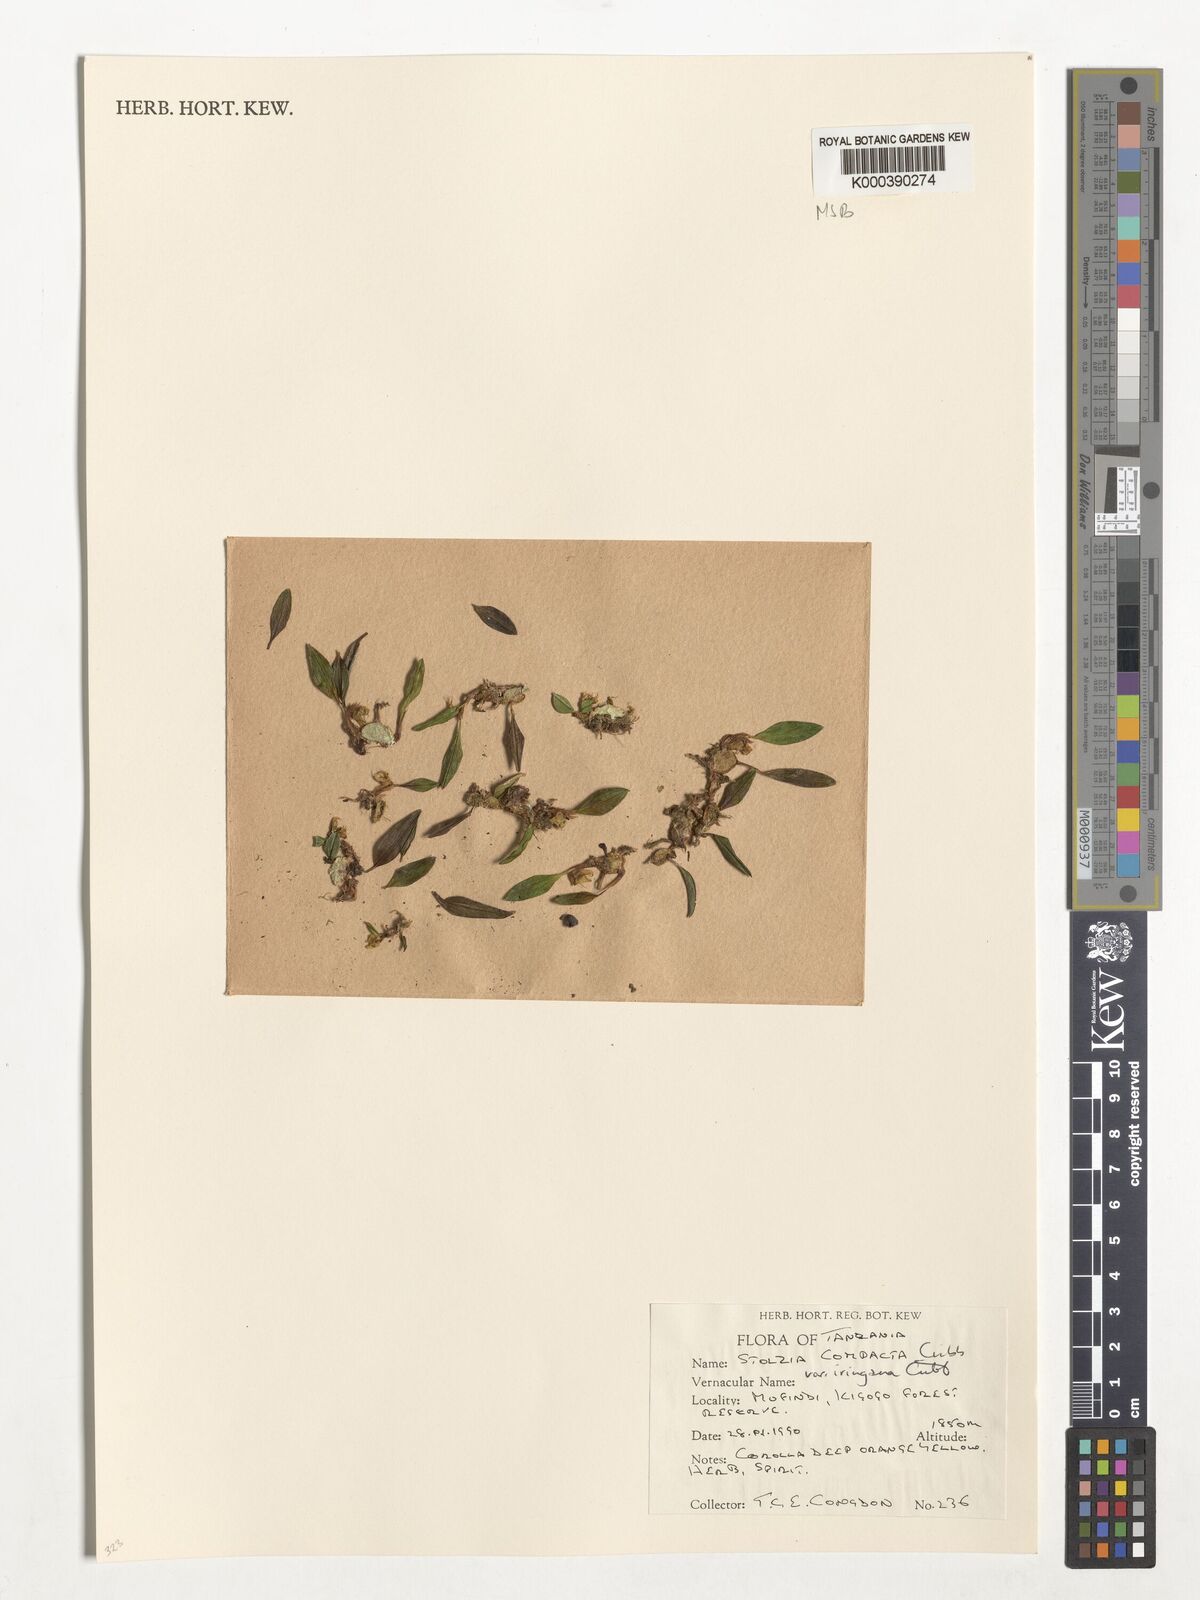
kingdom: Plantae
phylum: Tracheophyta
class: Liliopsida
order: Asparagales
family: Orchidaceae
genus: Porpax
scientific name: Porpax compacta
